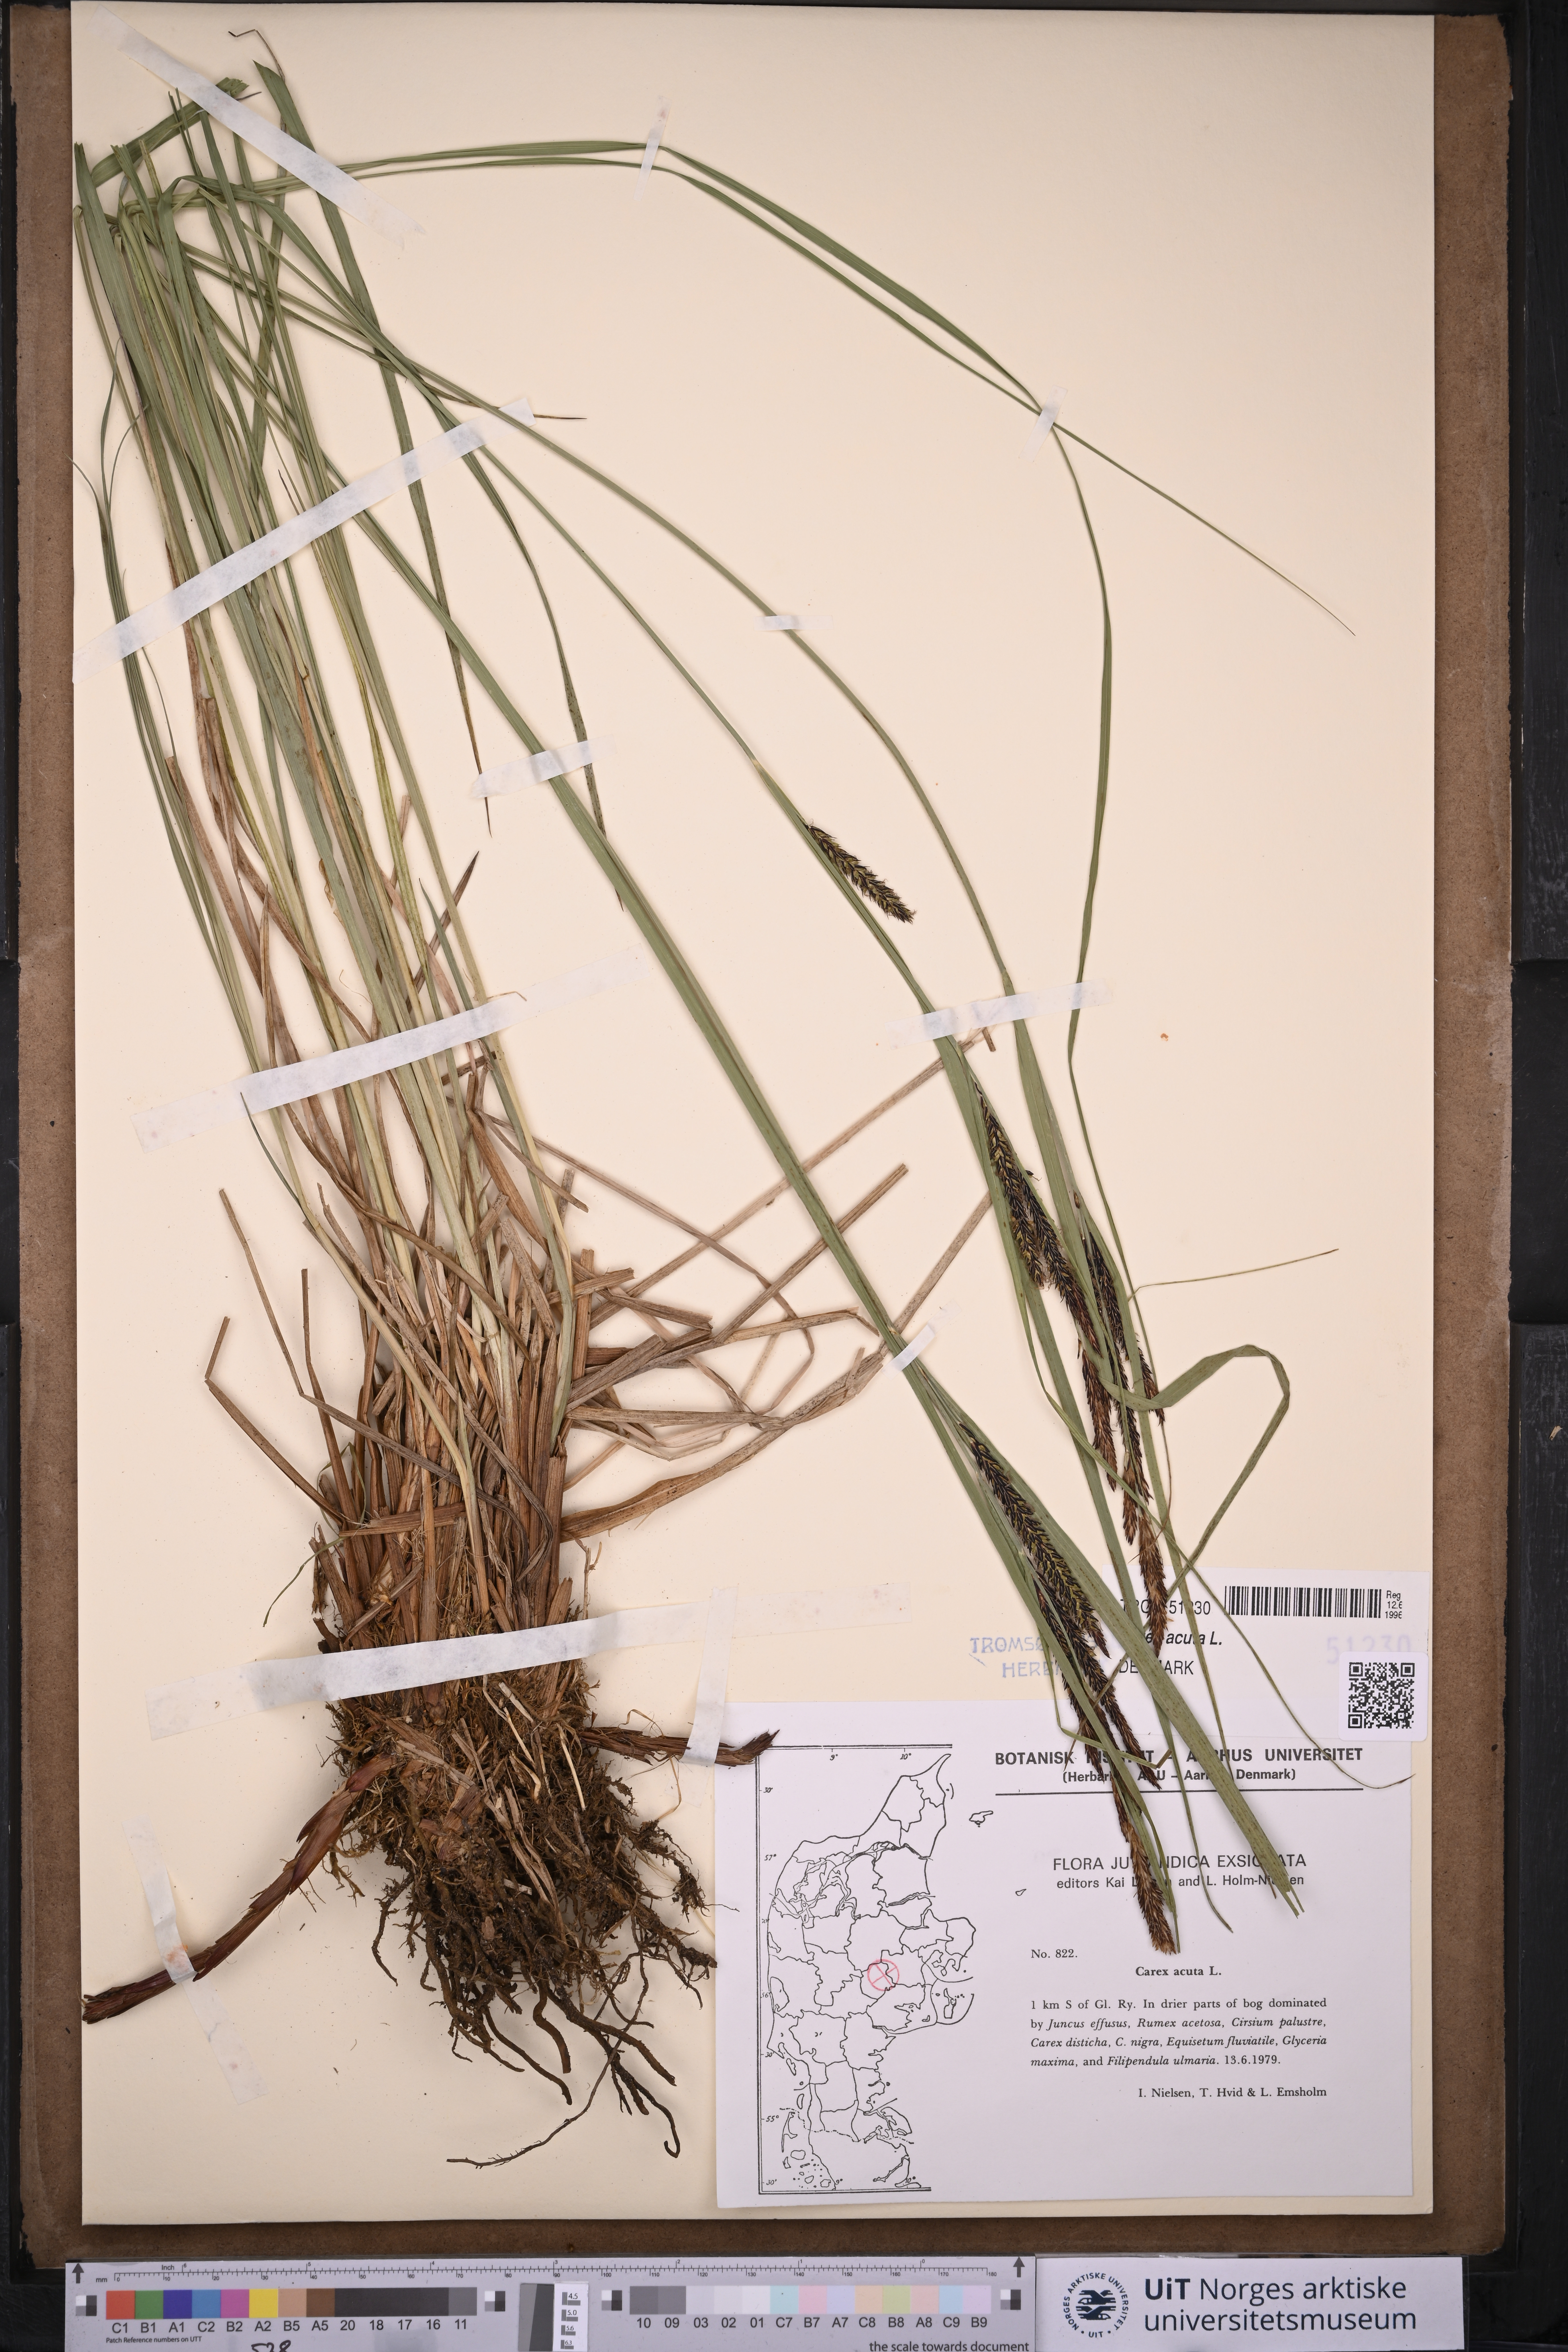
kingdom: Plantae
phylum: Tracheophyta
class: Liliopsida
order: Poales
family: Cyperaceae
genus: Carex
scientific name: Carex acuta
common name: Slender tufted-sedge
